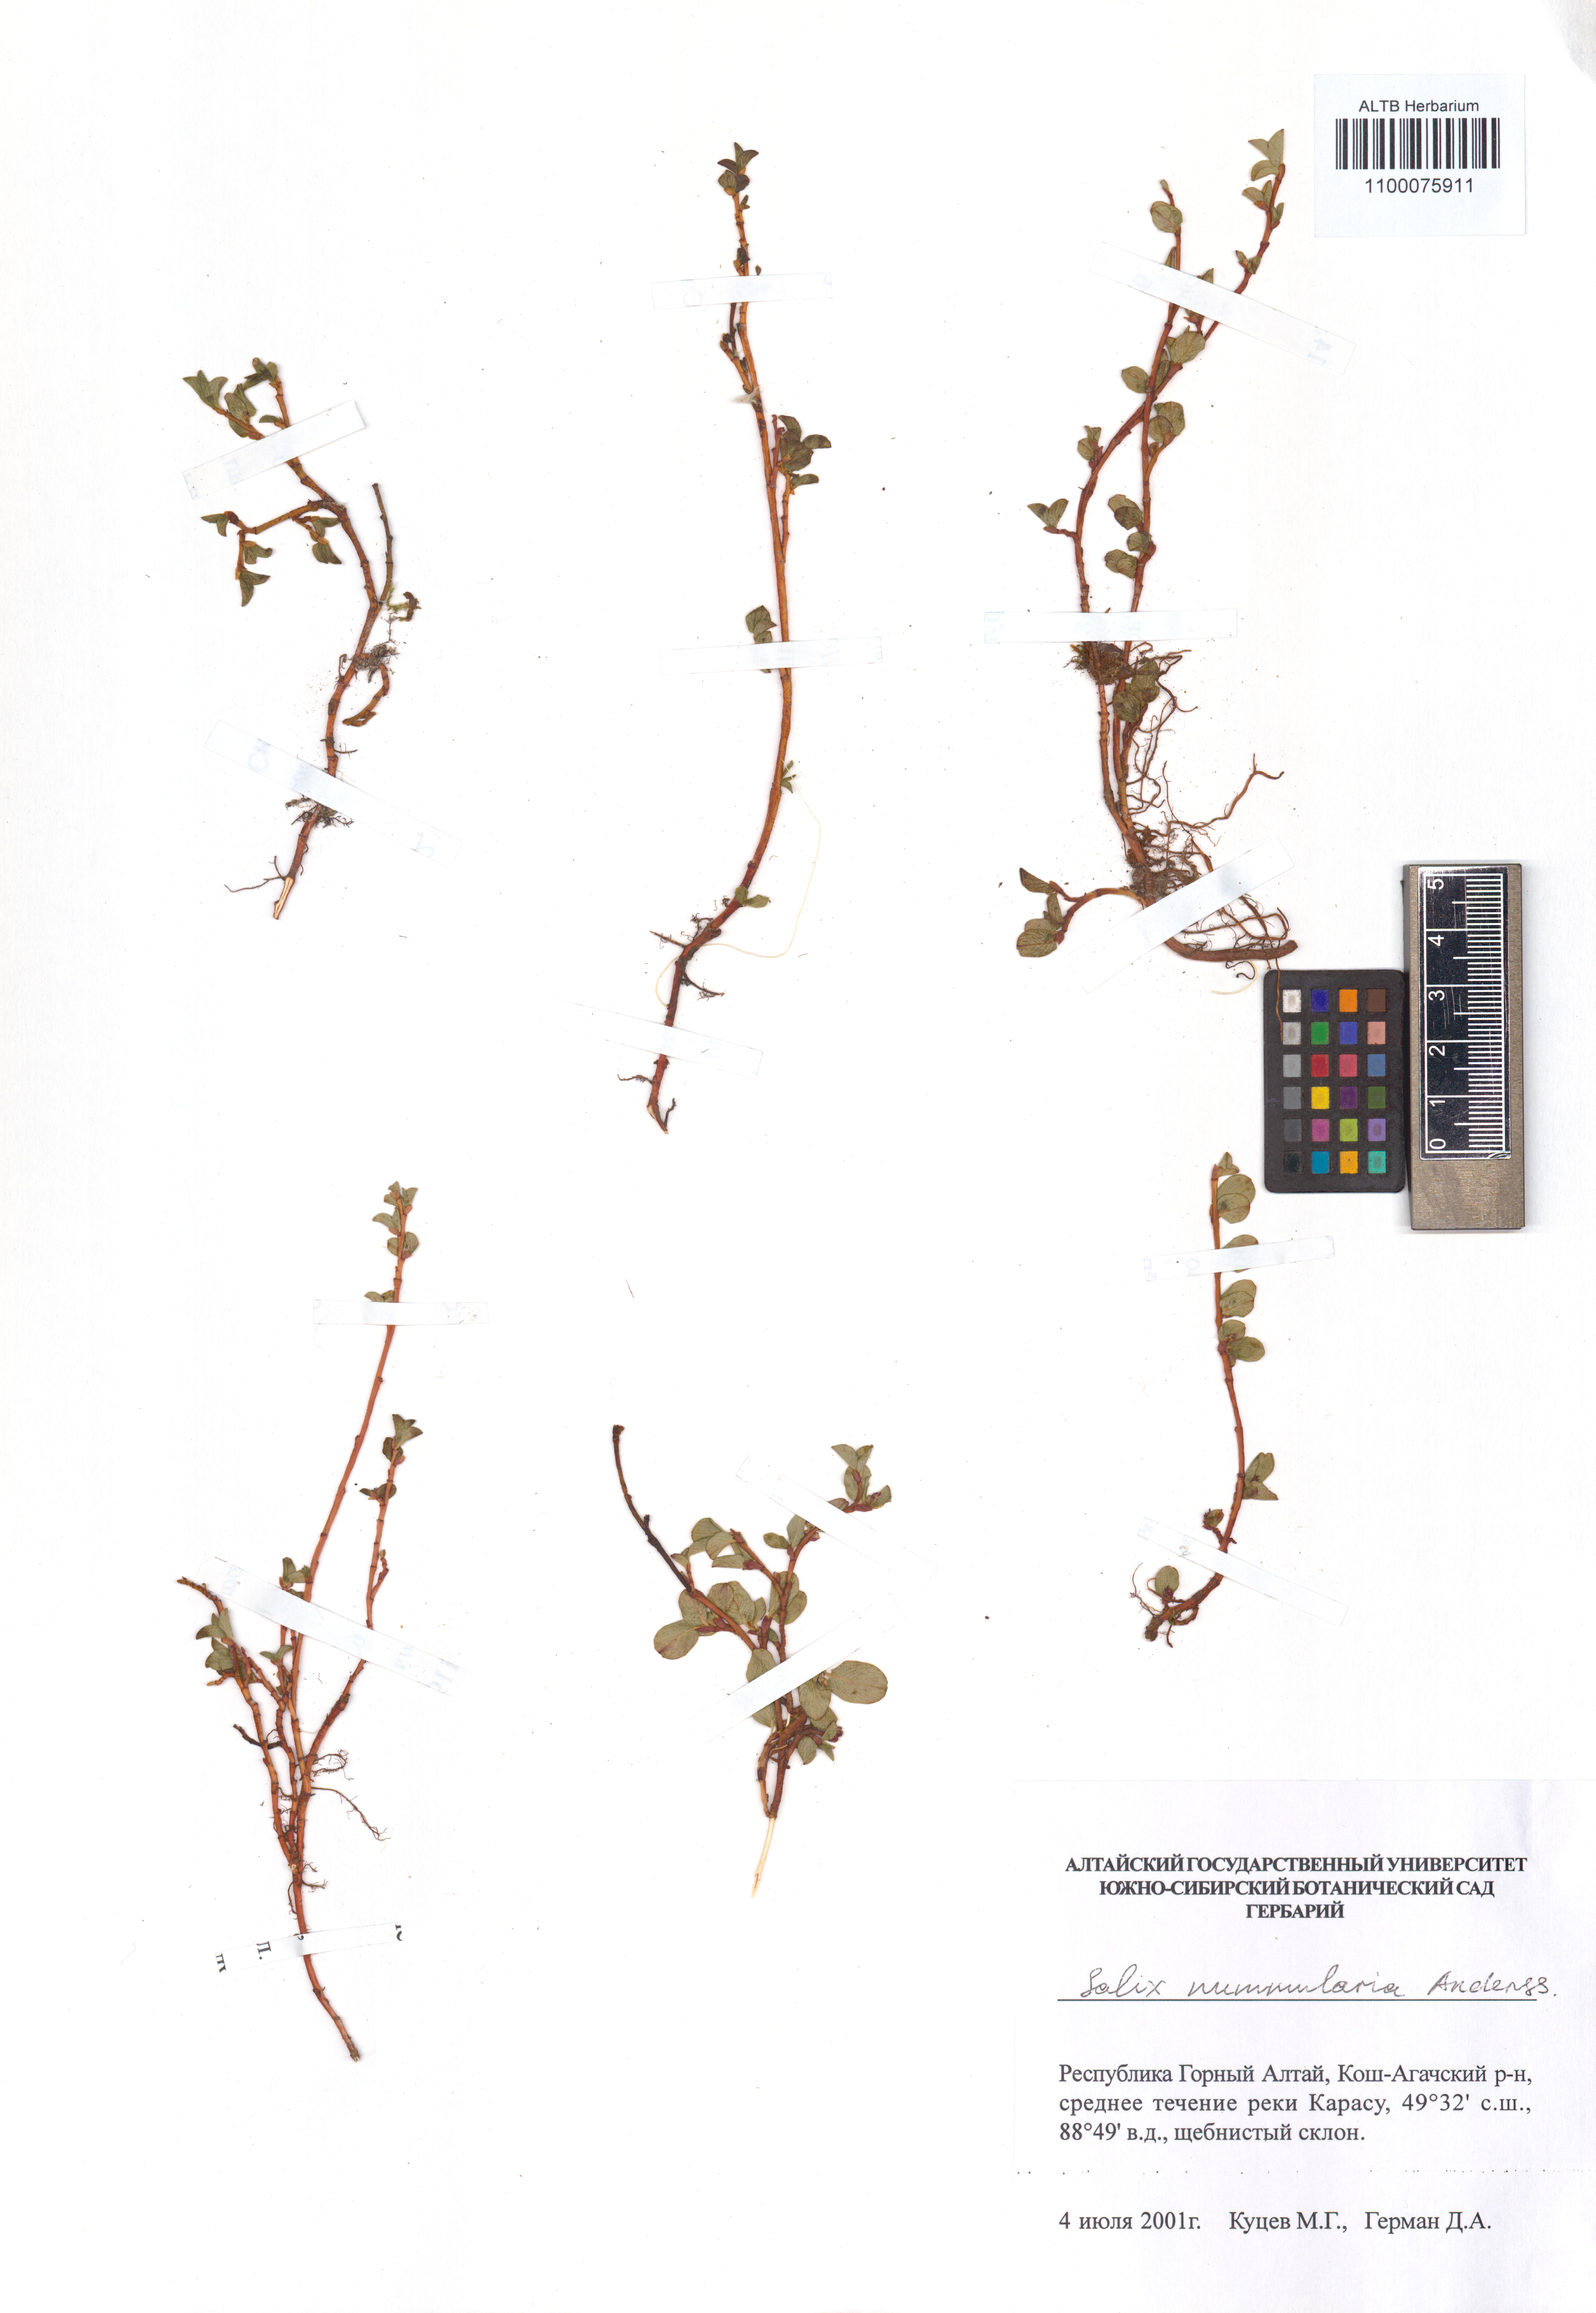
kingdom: Plantae
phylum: Tracheophyta
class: Magnoliopsida
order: Malpighiales
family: Salicaceae
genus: Salix
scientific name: Salix nummularia
